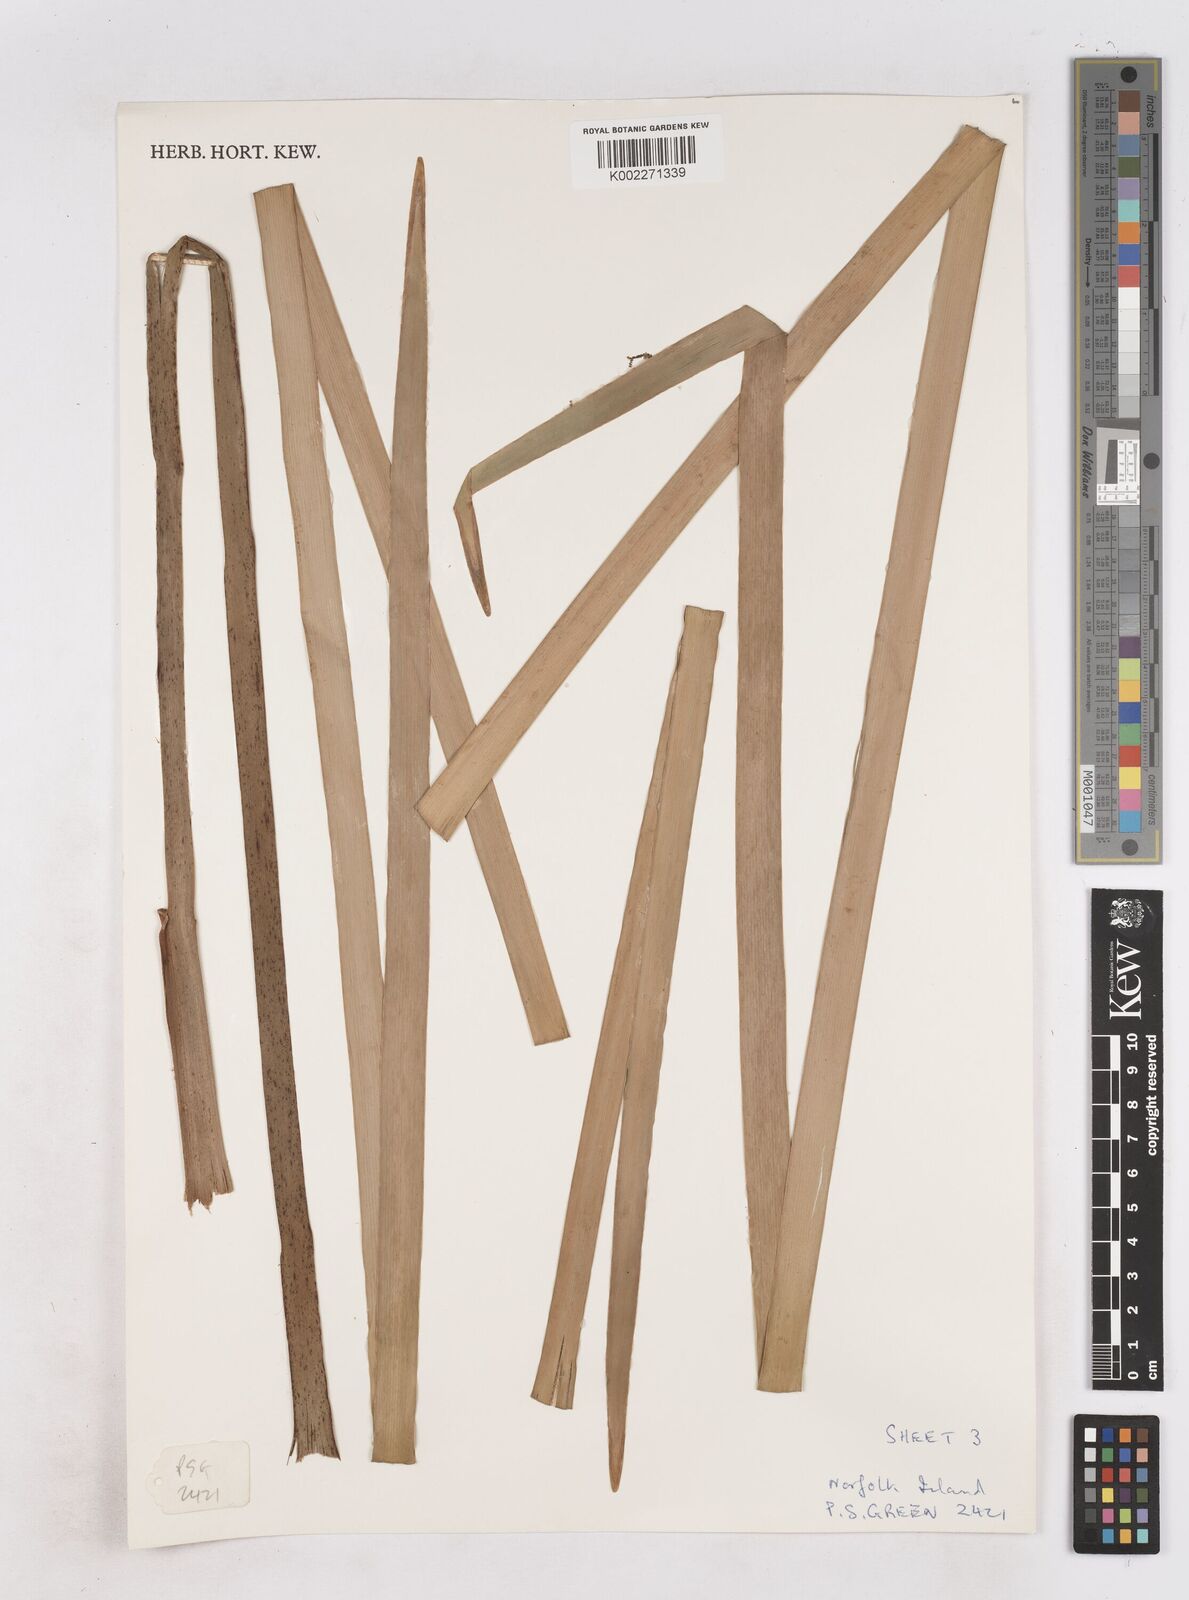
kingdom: Plantae
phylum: Tracheophyta
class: Liliopsida
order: Poales
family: Typhaceae
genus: Typha
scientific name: Typha orientalis
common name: Bullrush
